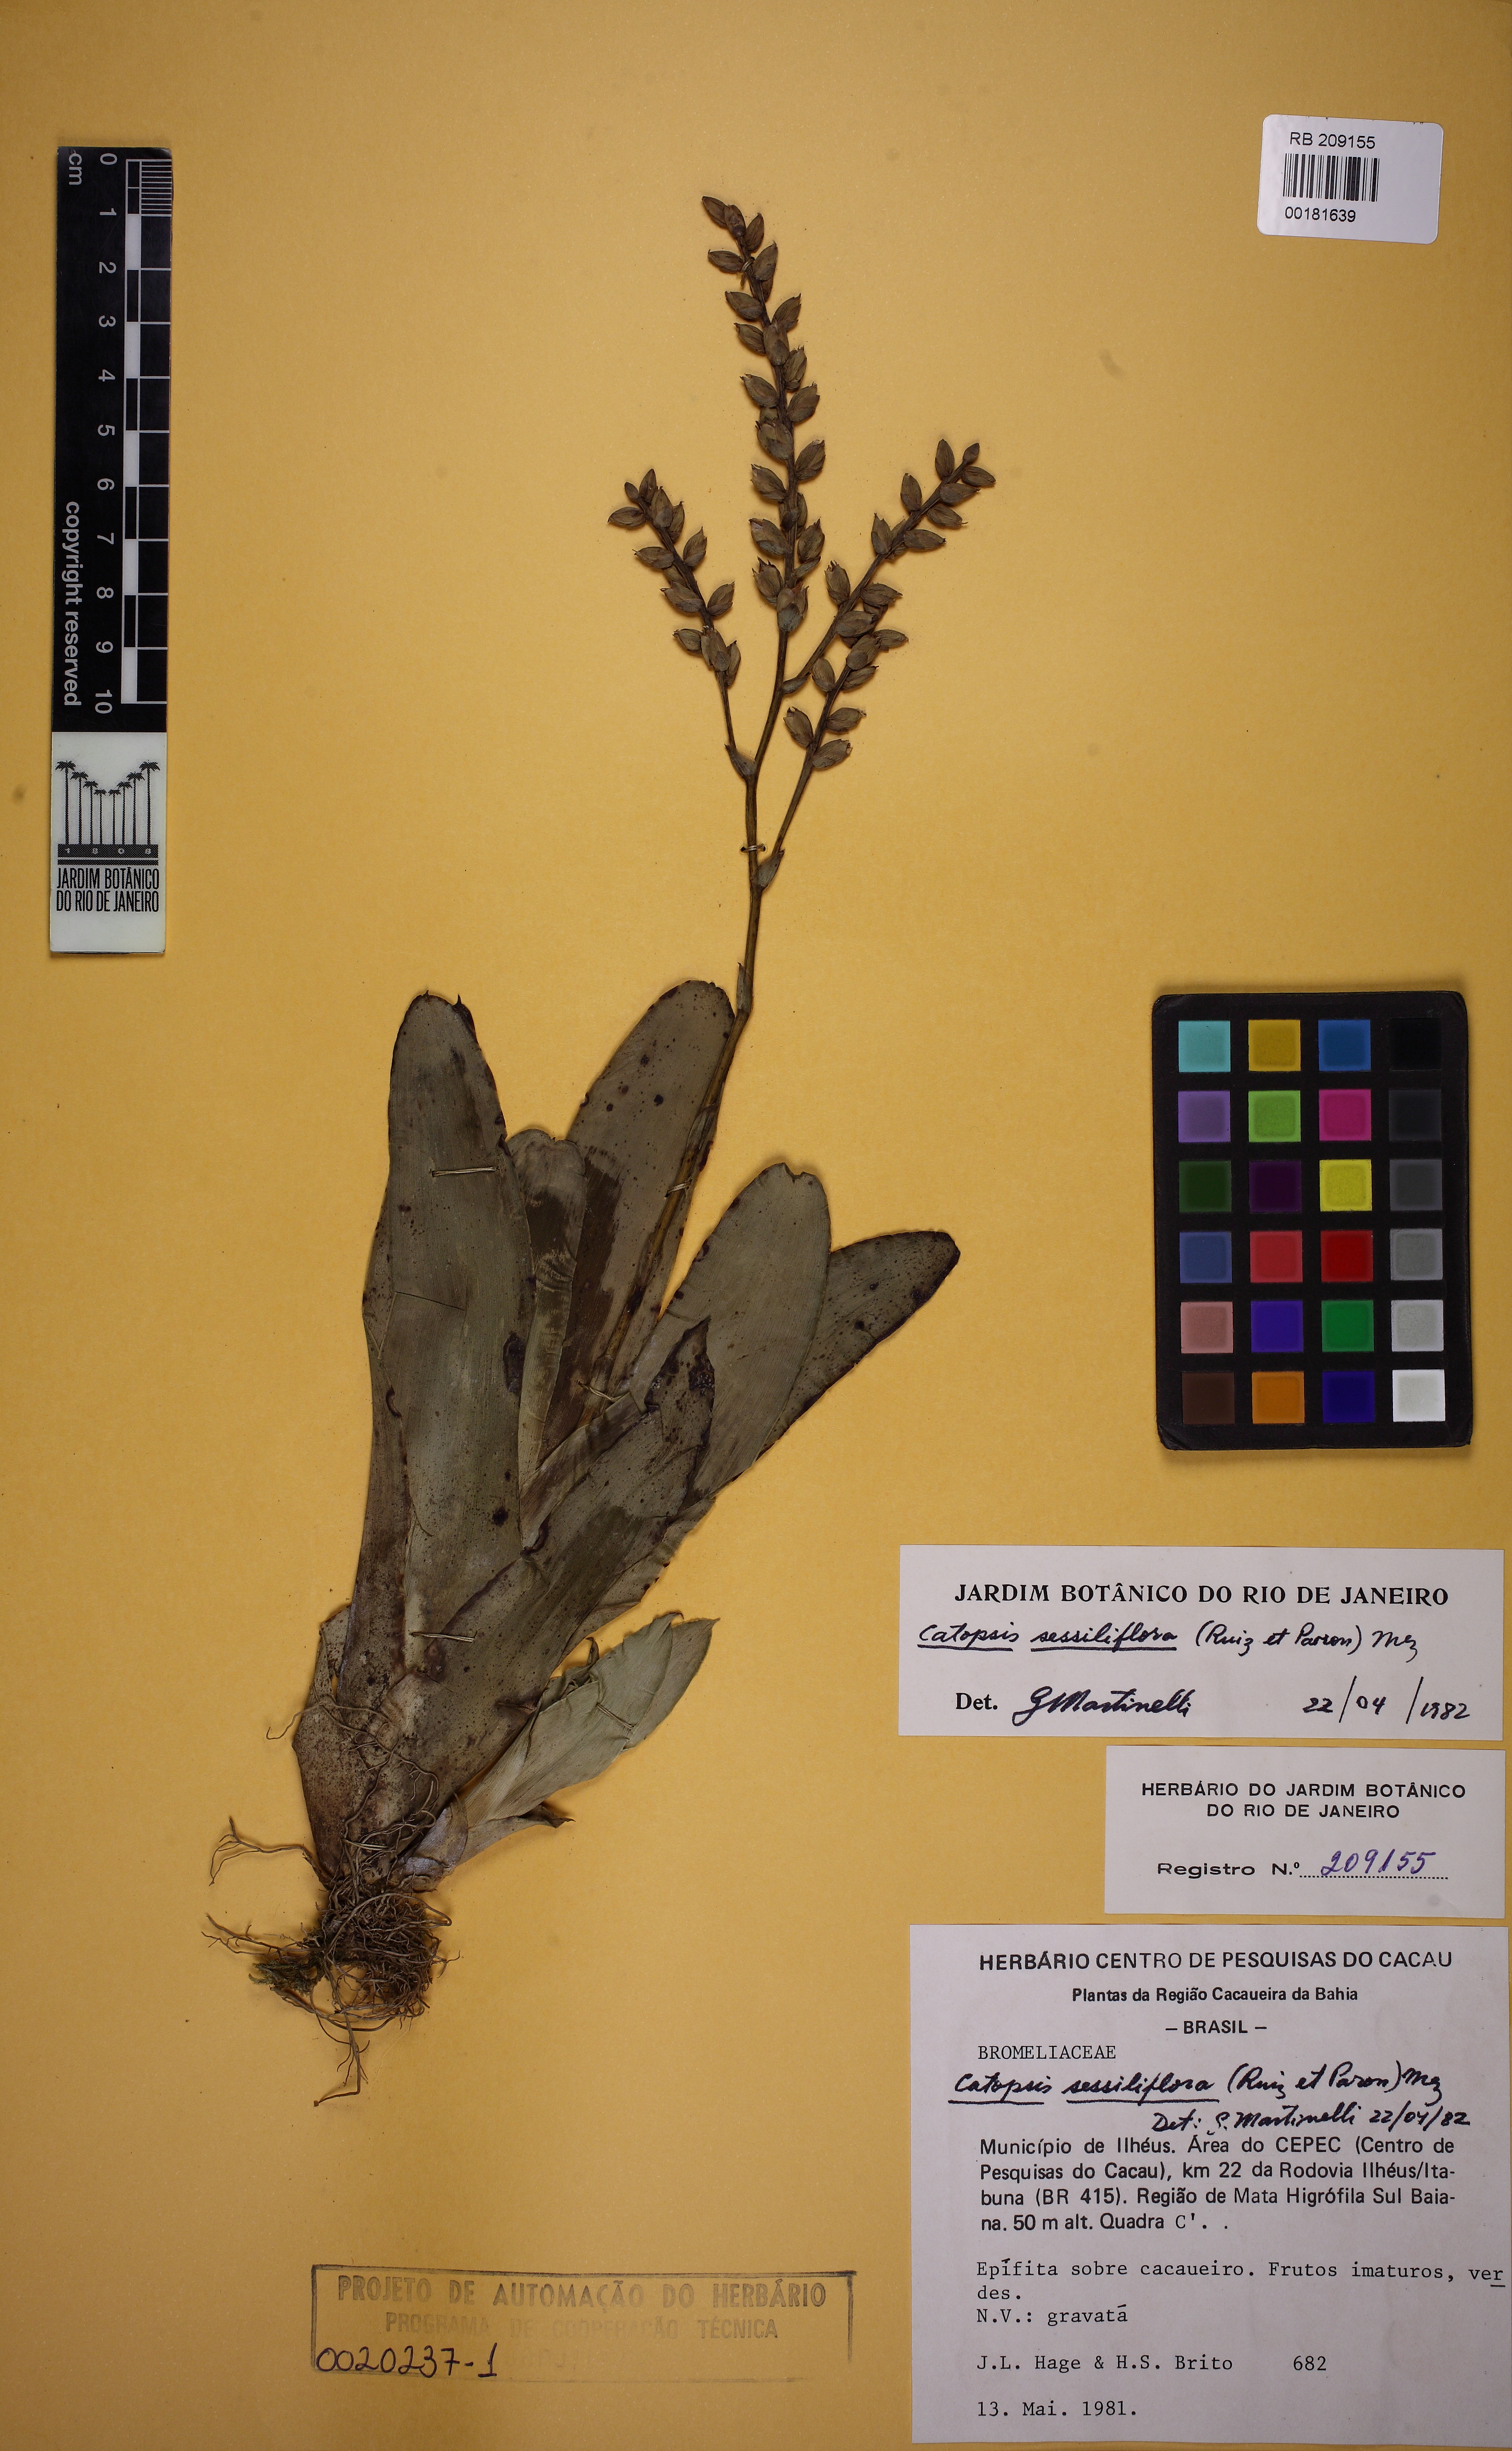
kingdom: Plantae
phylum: Tracheophyta
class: Liliopsida
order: Poales
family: Bromeliaceae
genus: Catopsis
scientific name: Catopsis sessiliflora
